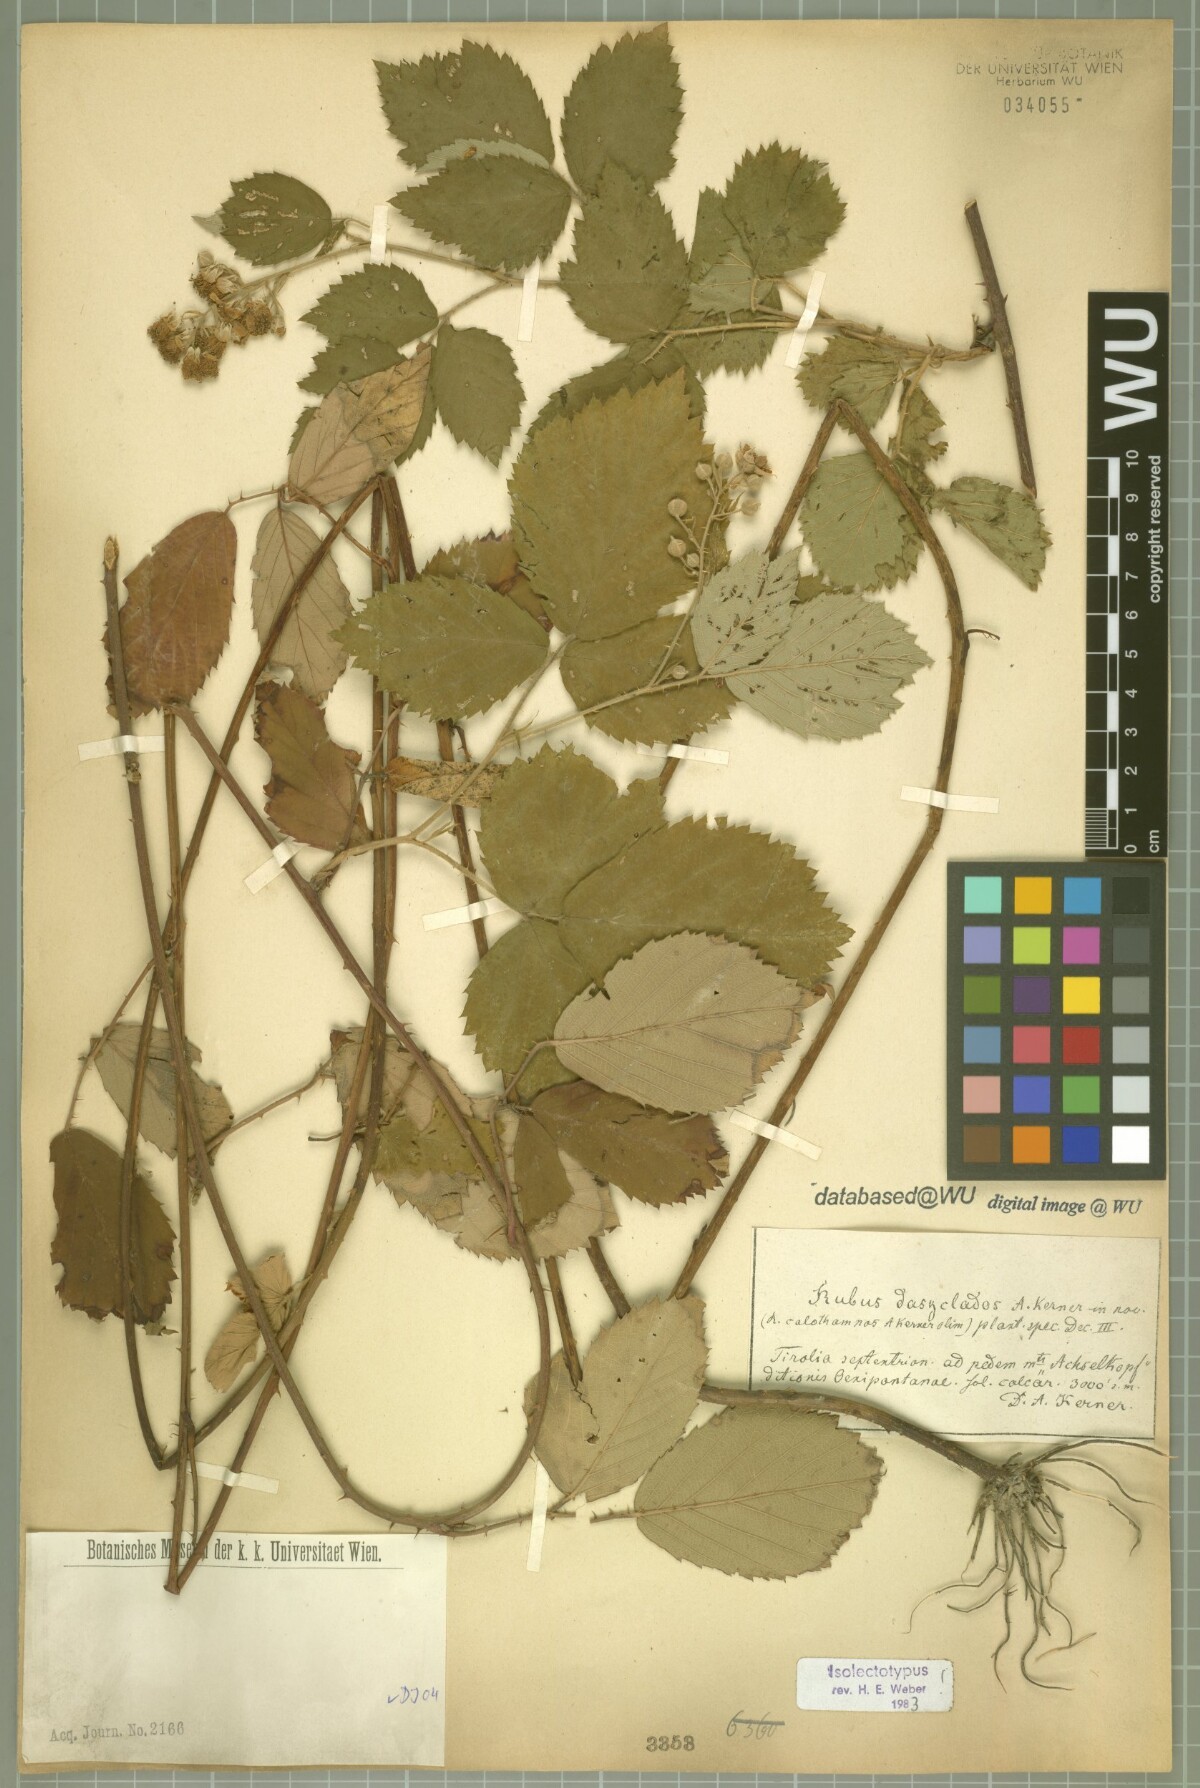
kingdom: Plantae
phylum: Tracheophyta
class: Magnoliopsida
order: Rosales
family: Rosaceae
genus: Rubus
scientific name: Rubus adscitus
